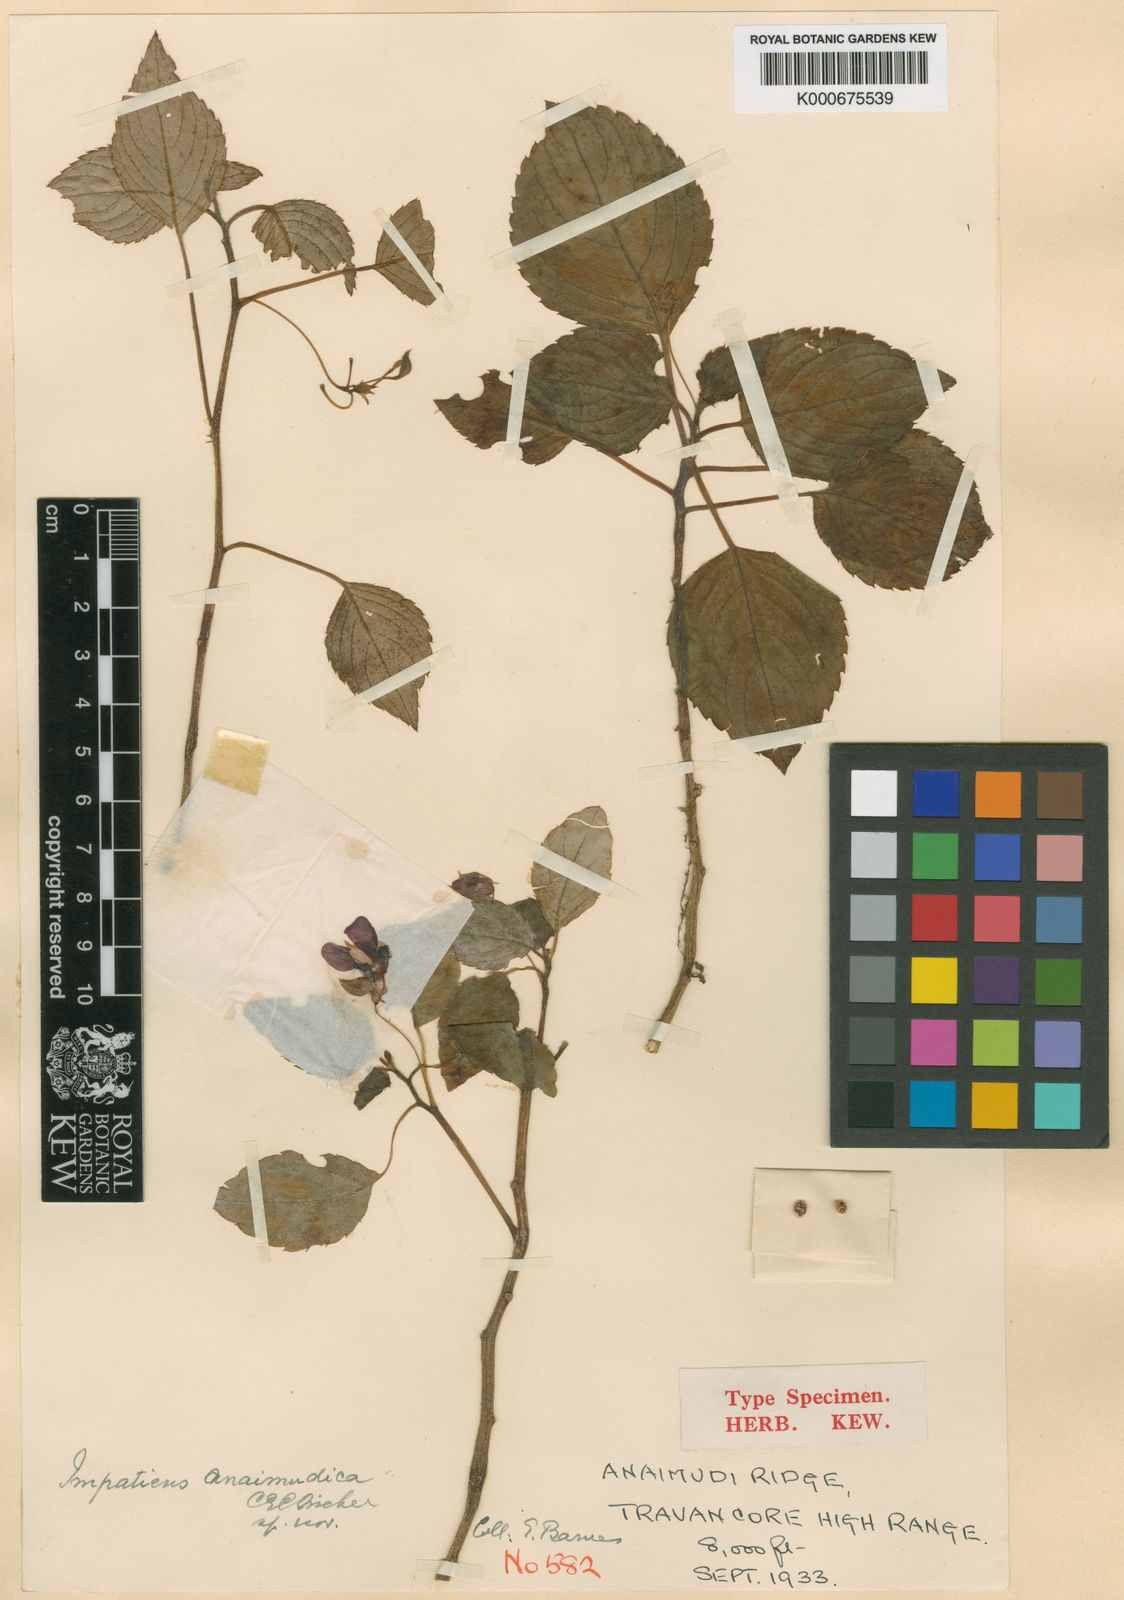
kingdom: Plantae
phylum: Tracheophyta
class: Magnoliopsida
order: Ericales
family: Balsaminaceae
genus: Impatiens
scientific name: Impatiens anaimudica
